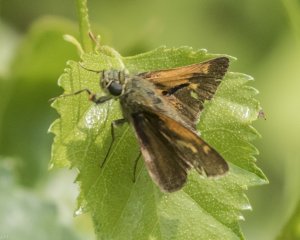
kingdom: Animalia
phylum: Arthropoda
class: Insecta
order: Lepidoptera
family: Hesperiidae
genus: Polites
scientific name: Polites
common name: Long Dash Skipper
